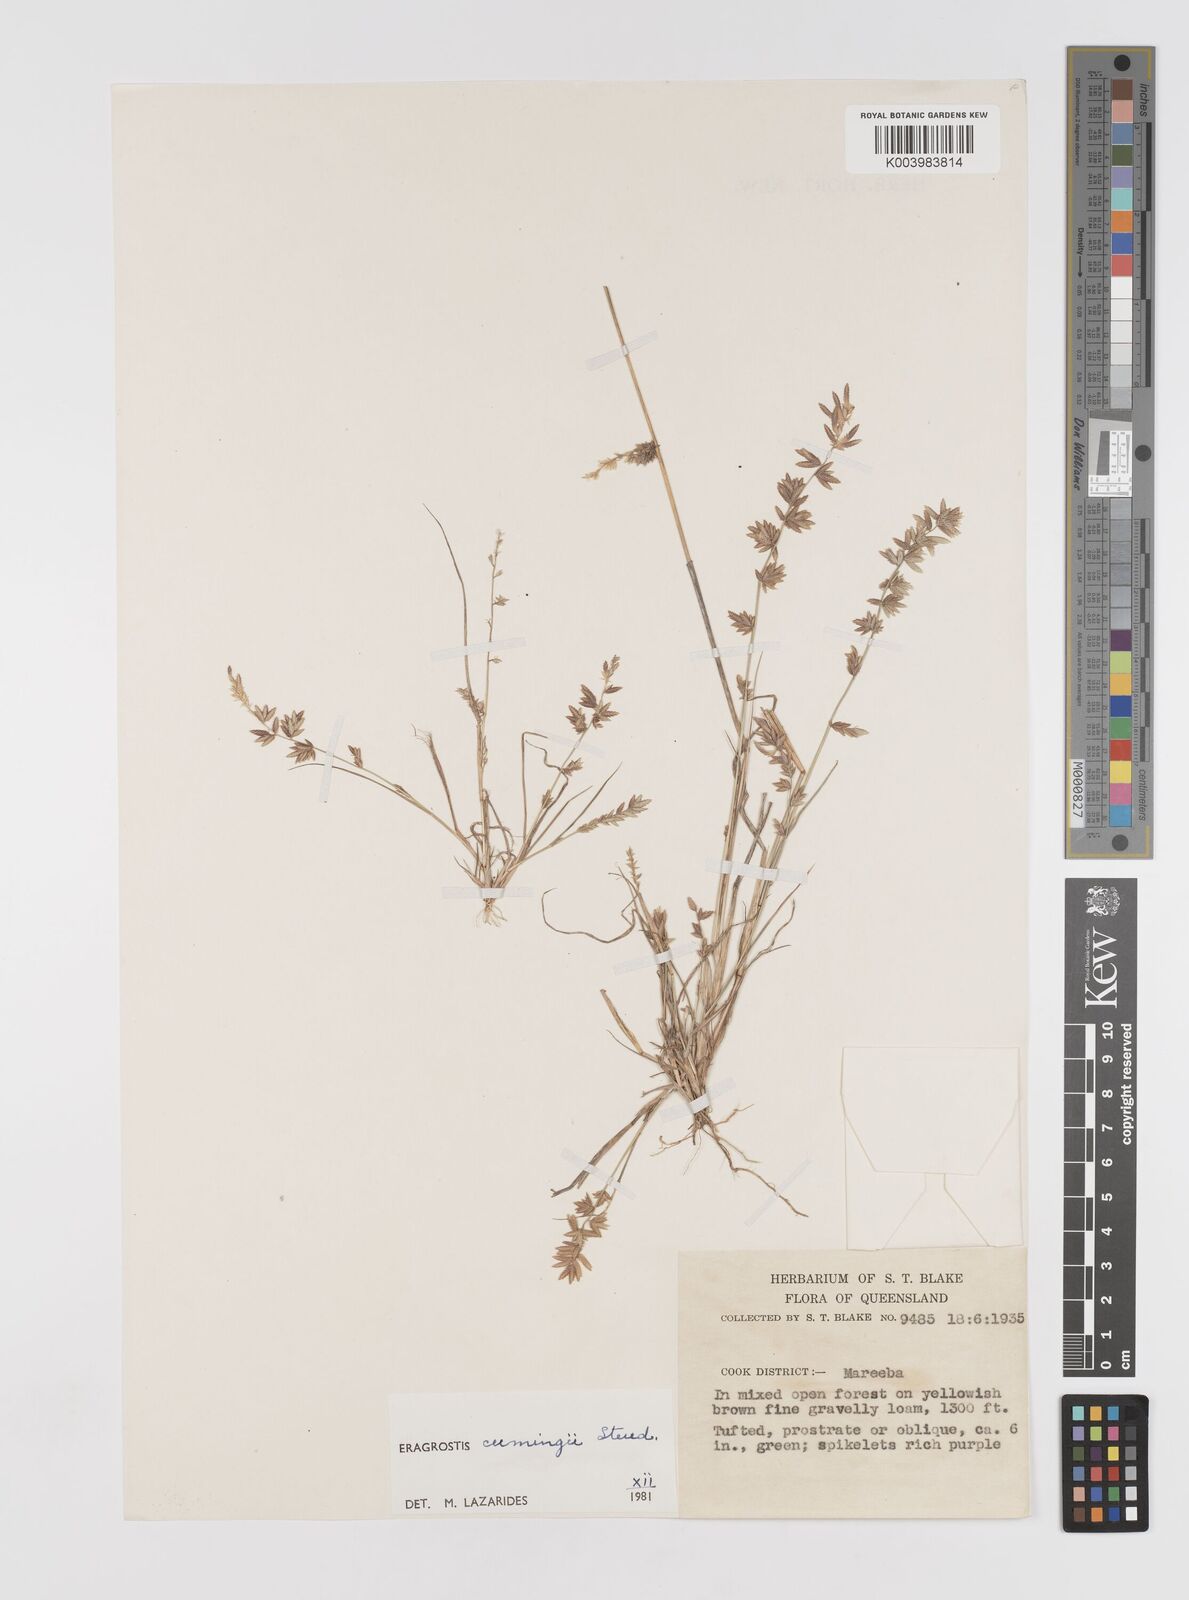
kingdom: Plantae
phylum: Tracheophyta
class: Liliopsida
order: Poales
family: Poaceae
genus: Eragrostis
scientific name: Eragrostis cumingii
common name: Cuming's lovegrass
